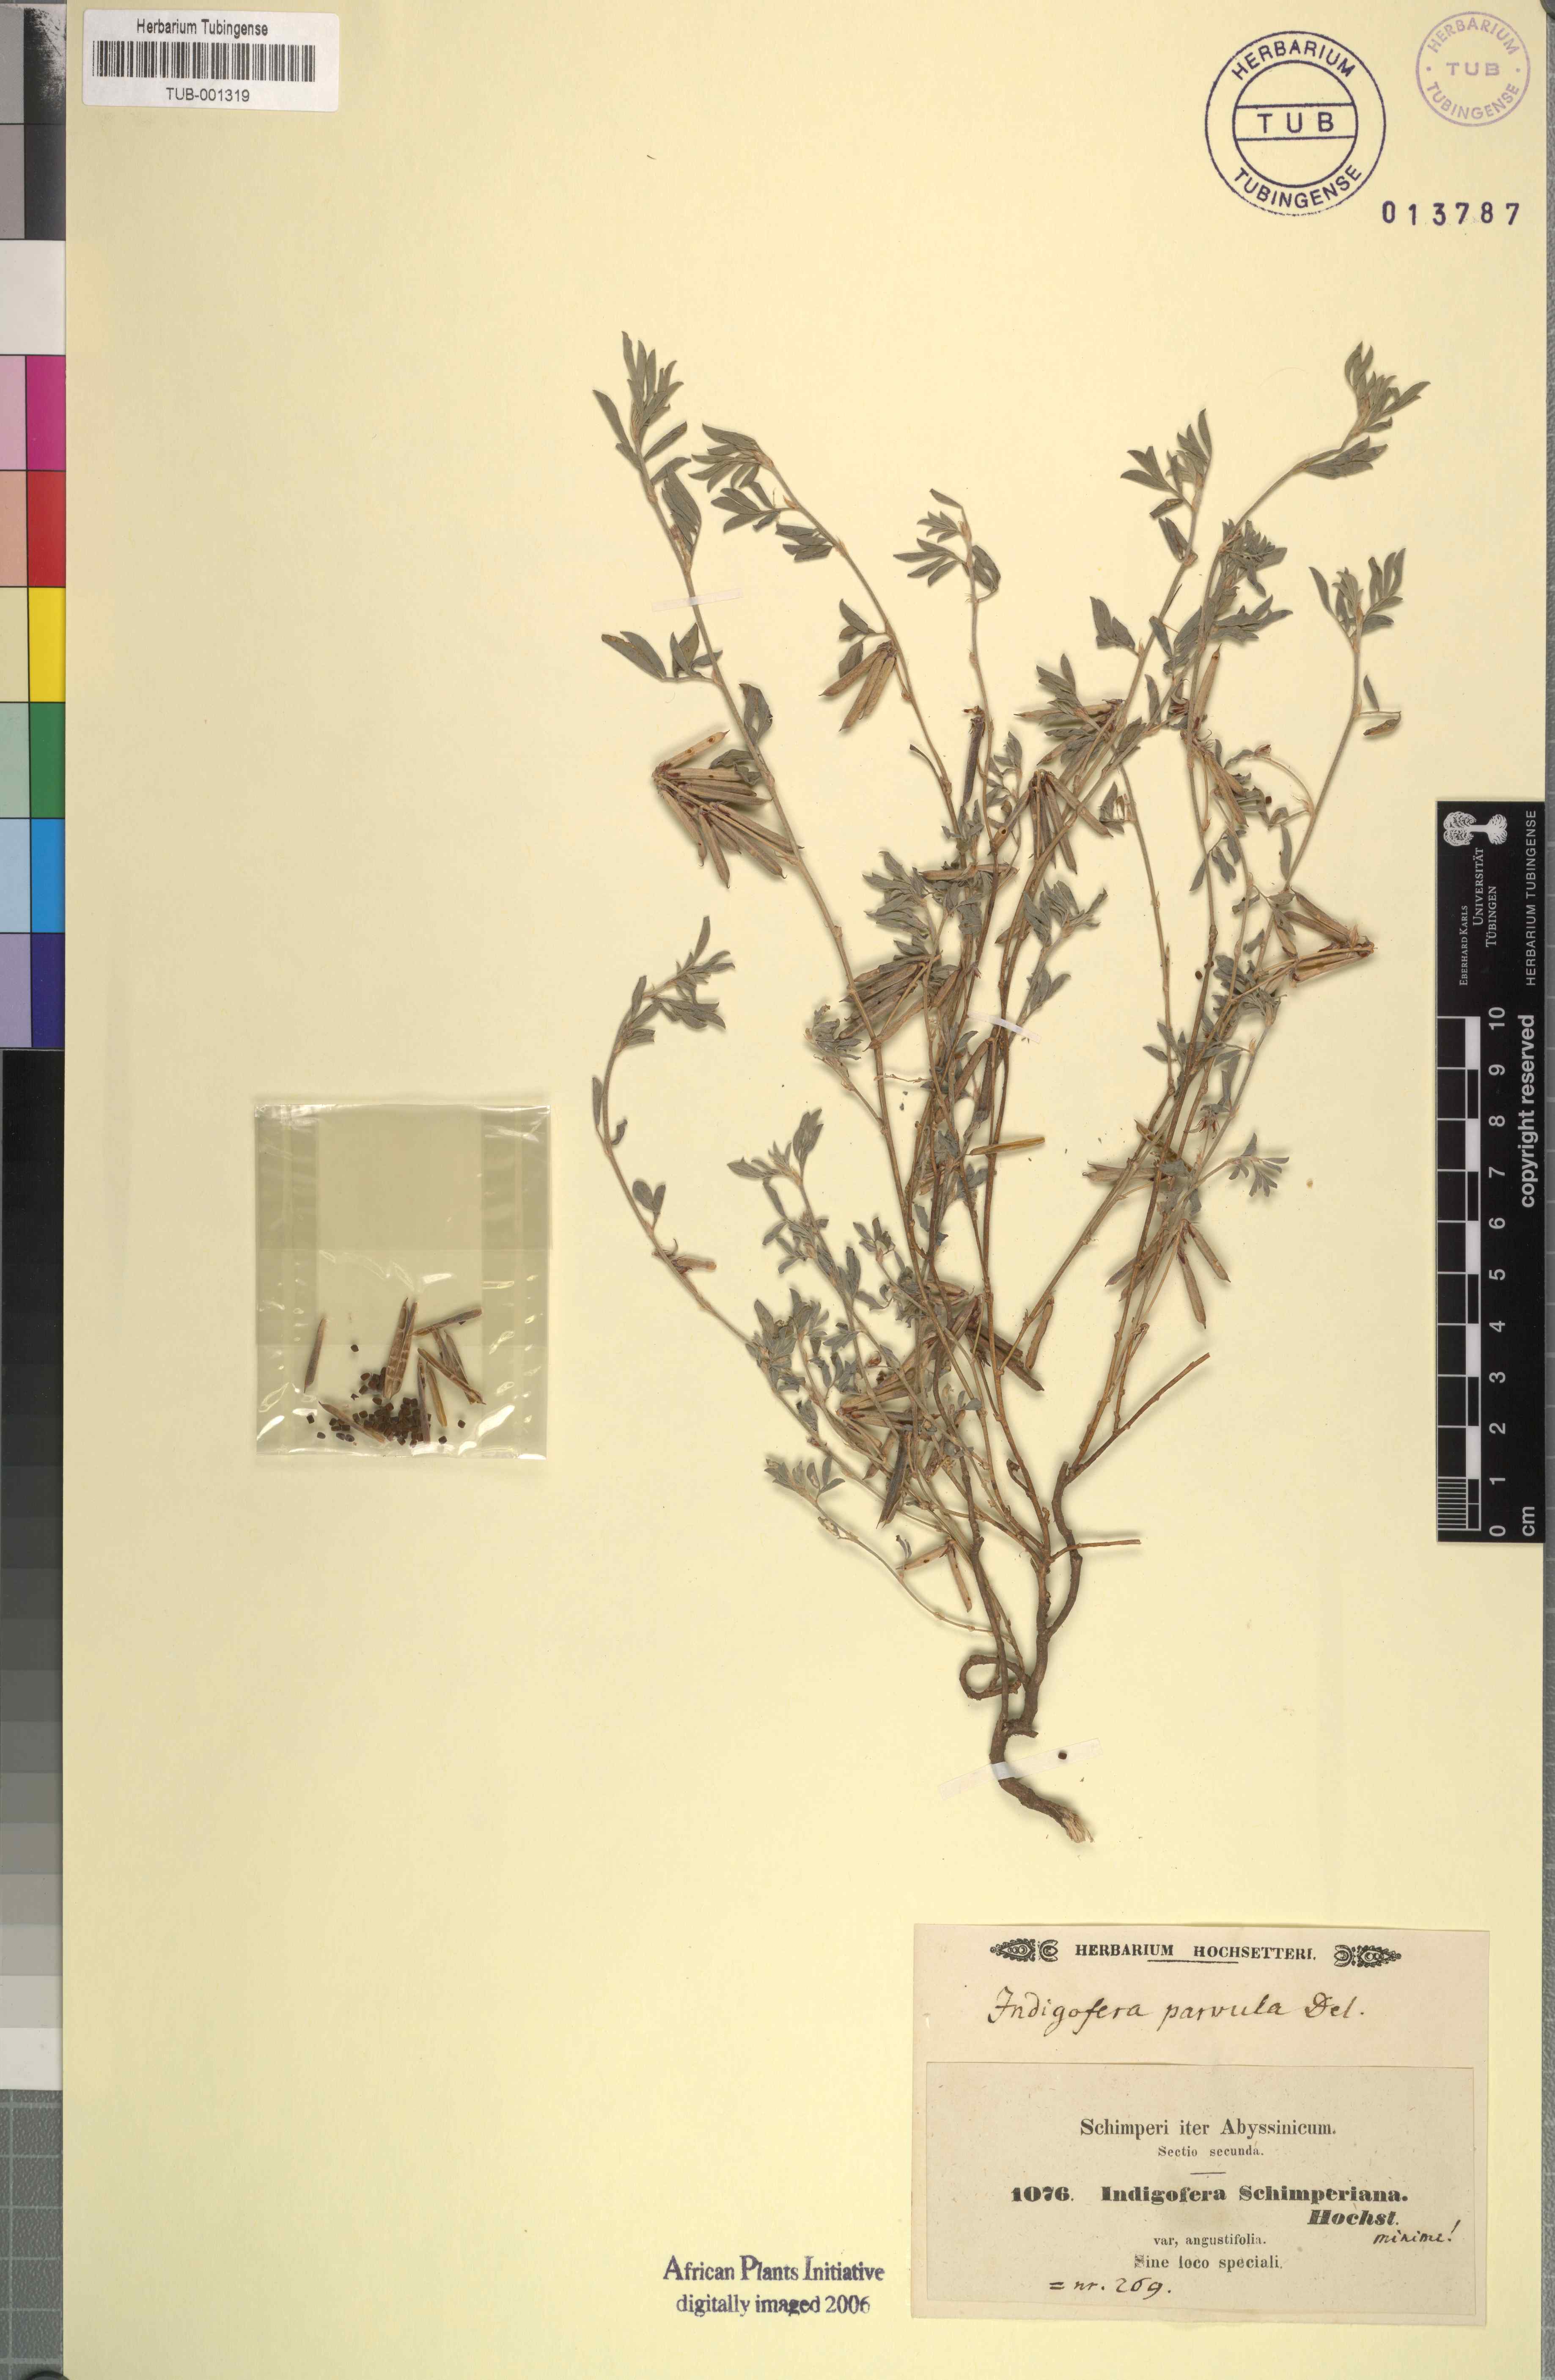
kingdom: Plantae
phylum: Tracheophyta
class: Magnoliopsida
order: Fabales
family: Fabaceae
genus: Indigofera
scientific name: Indigofera spicata
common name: Creeping indigo
